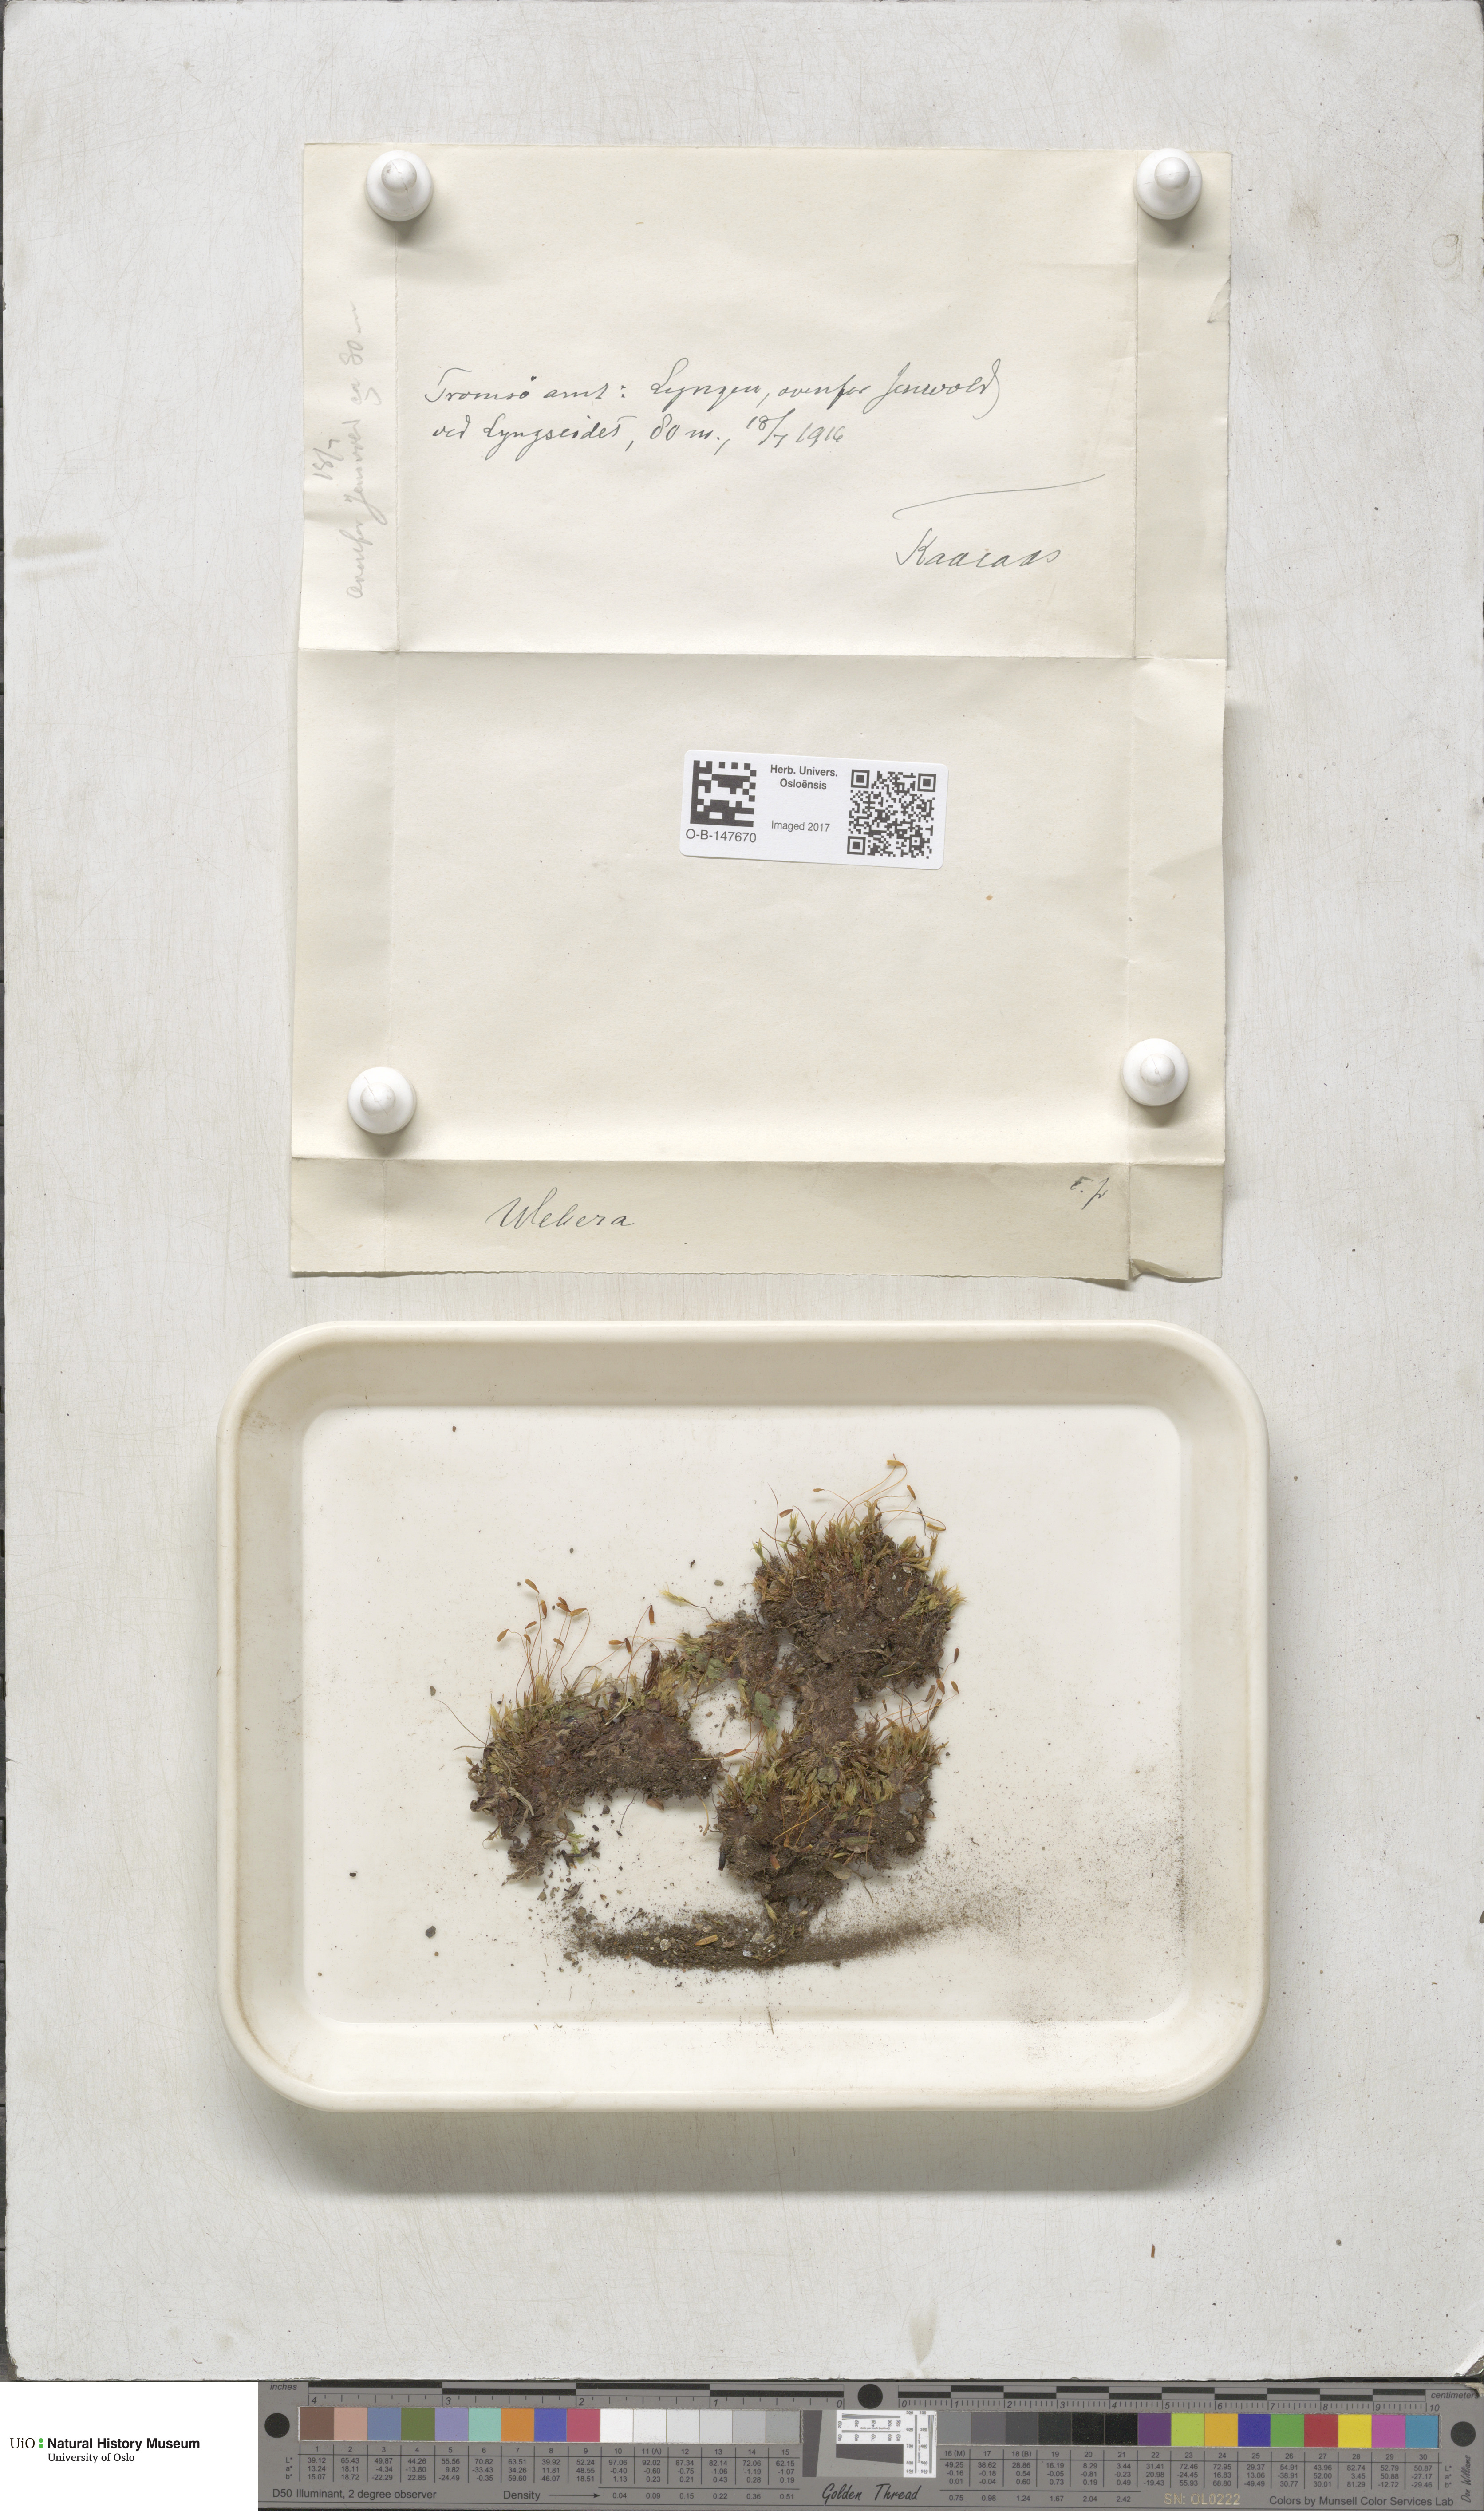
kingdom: Plantae
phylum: Bryophyta
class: Bryopsida
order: Bryales
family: Mniaceae
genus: Pohlia
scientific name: Pohlia
